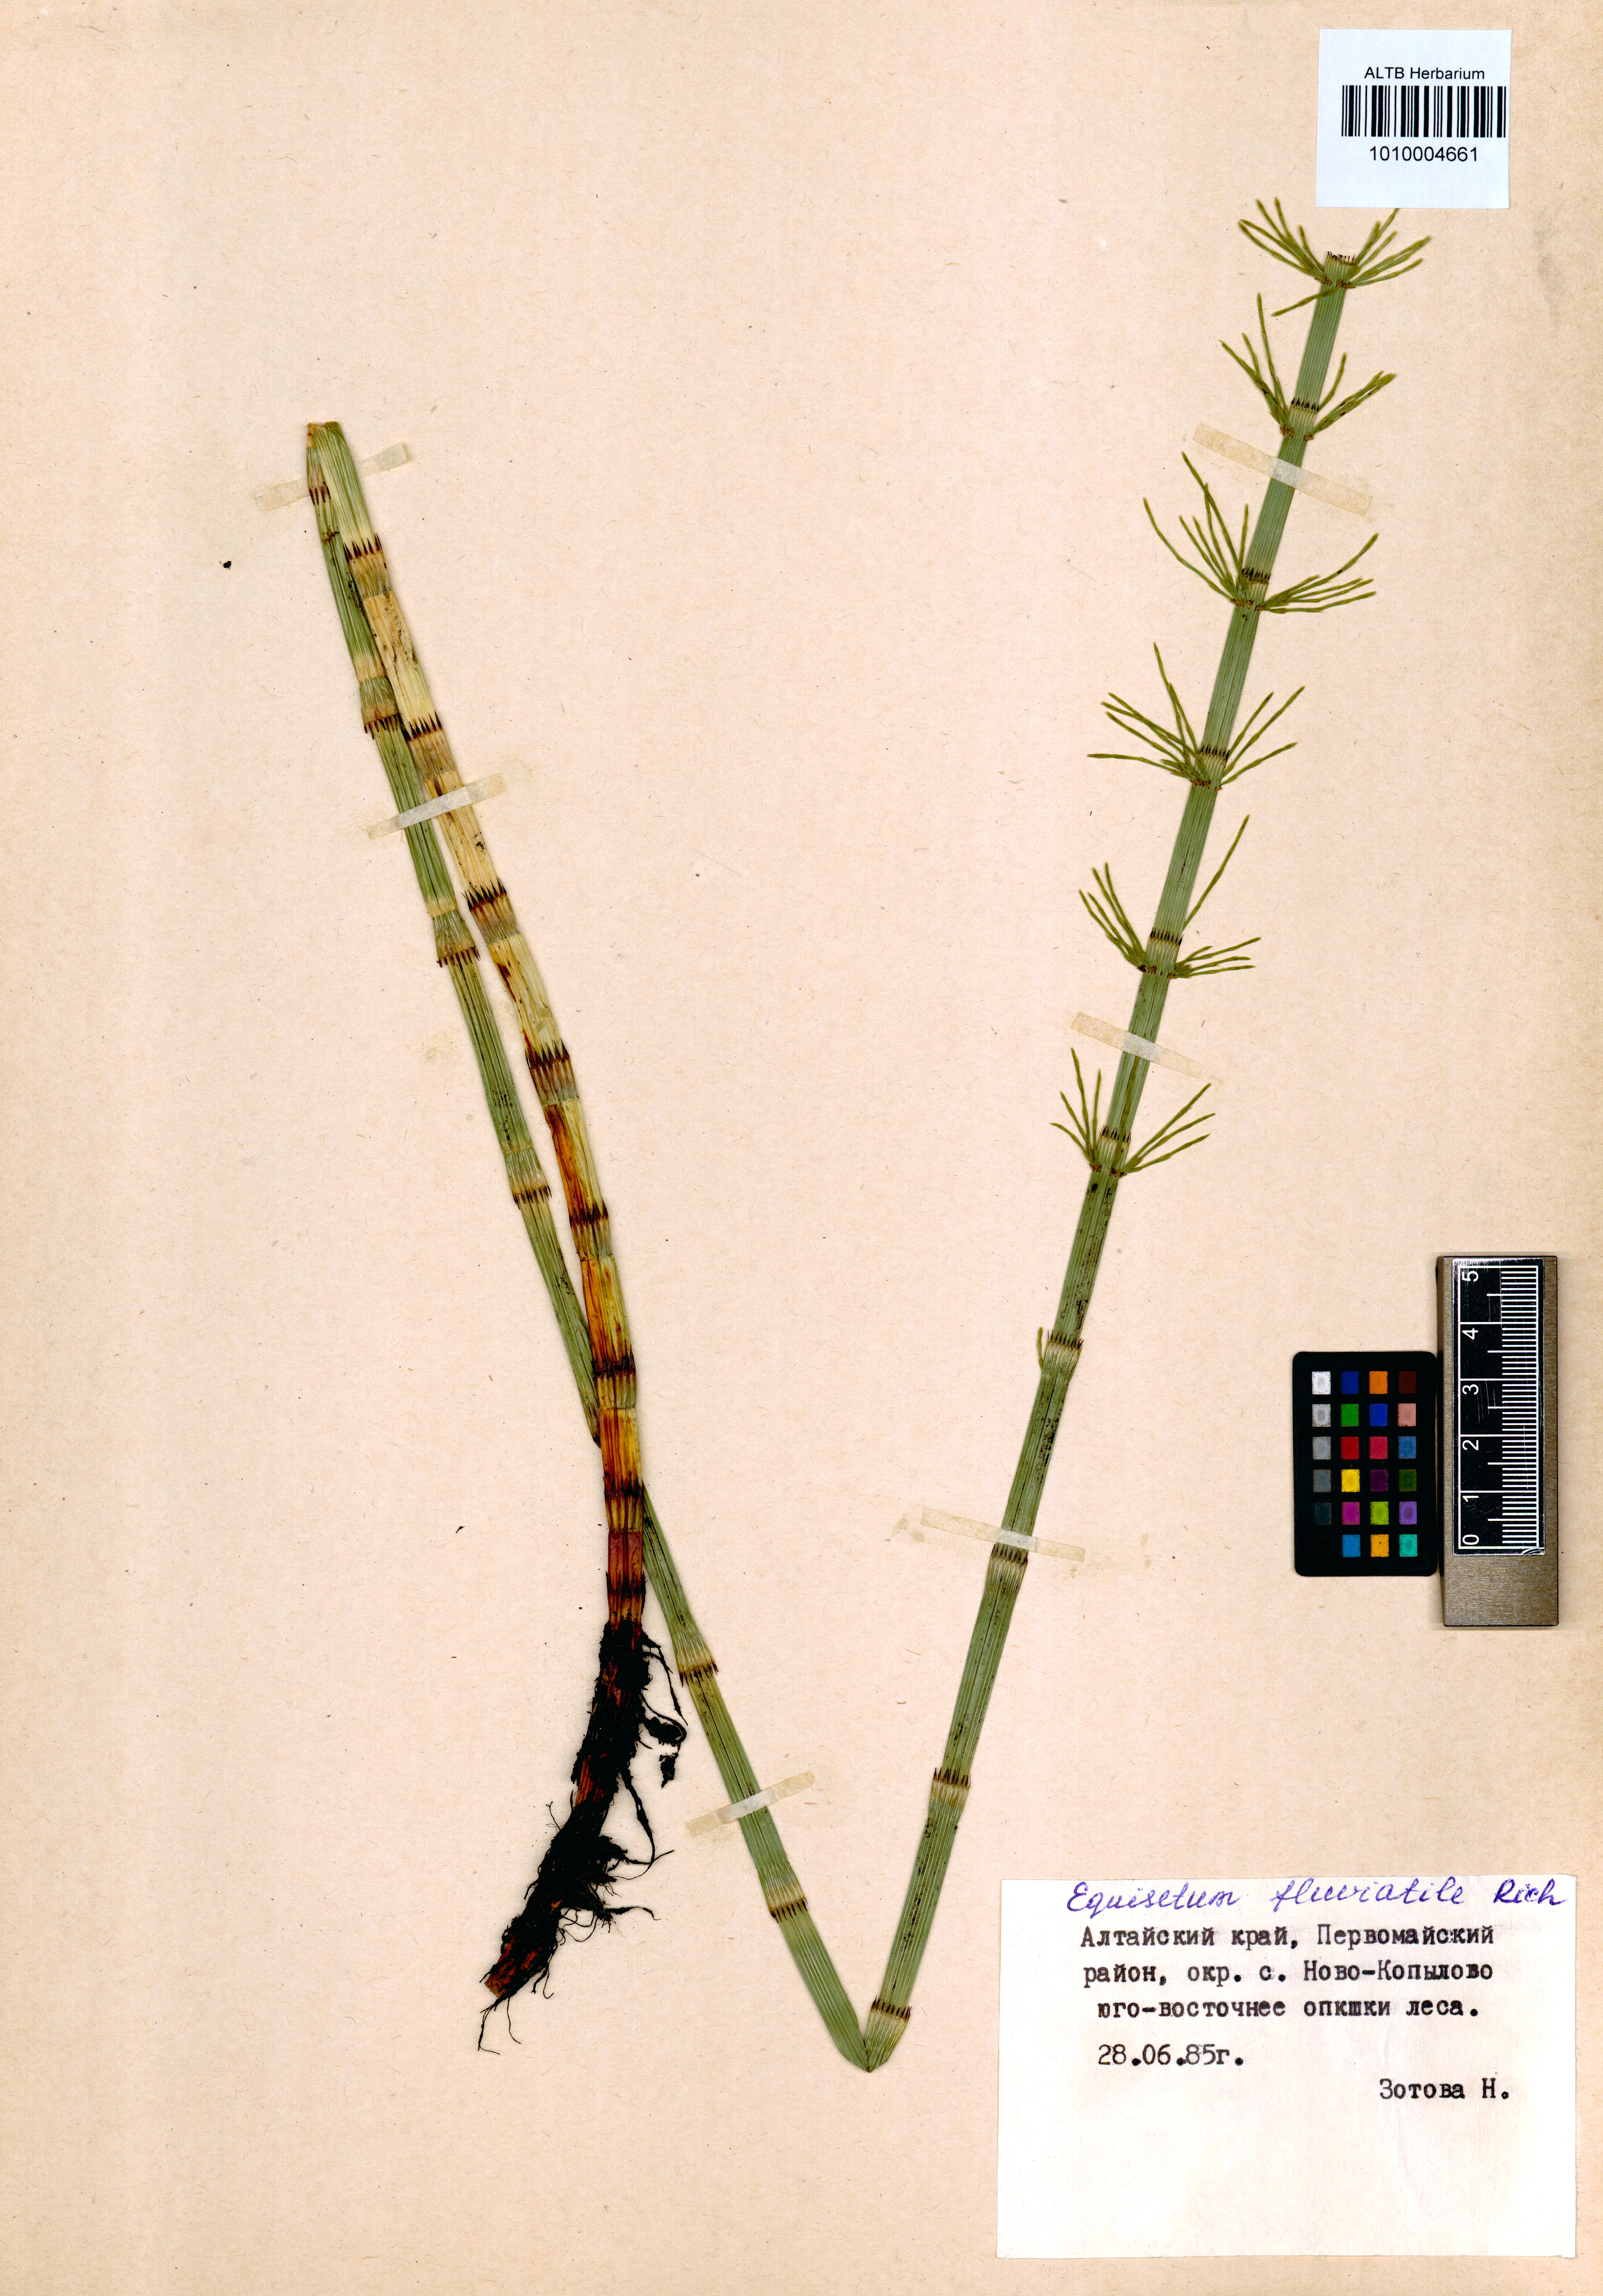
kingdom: Plantae
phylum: Tracheophyta
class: Polypodiopsida
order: Equisetales
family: Equisetaceae
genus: Equisetum
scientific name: Equisetum fluviatile
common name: Water horsetail
